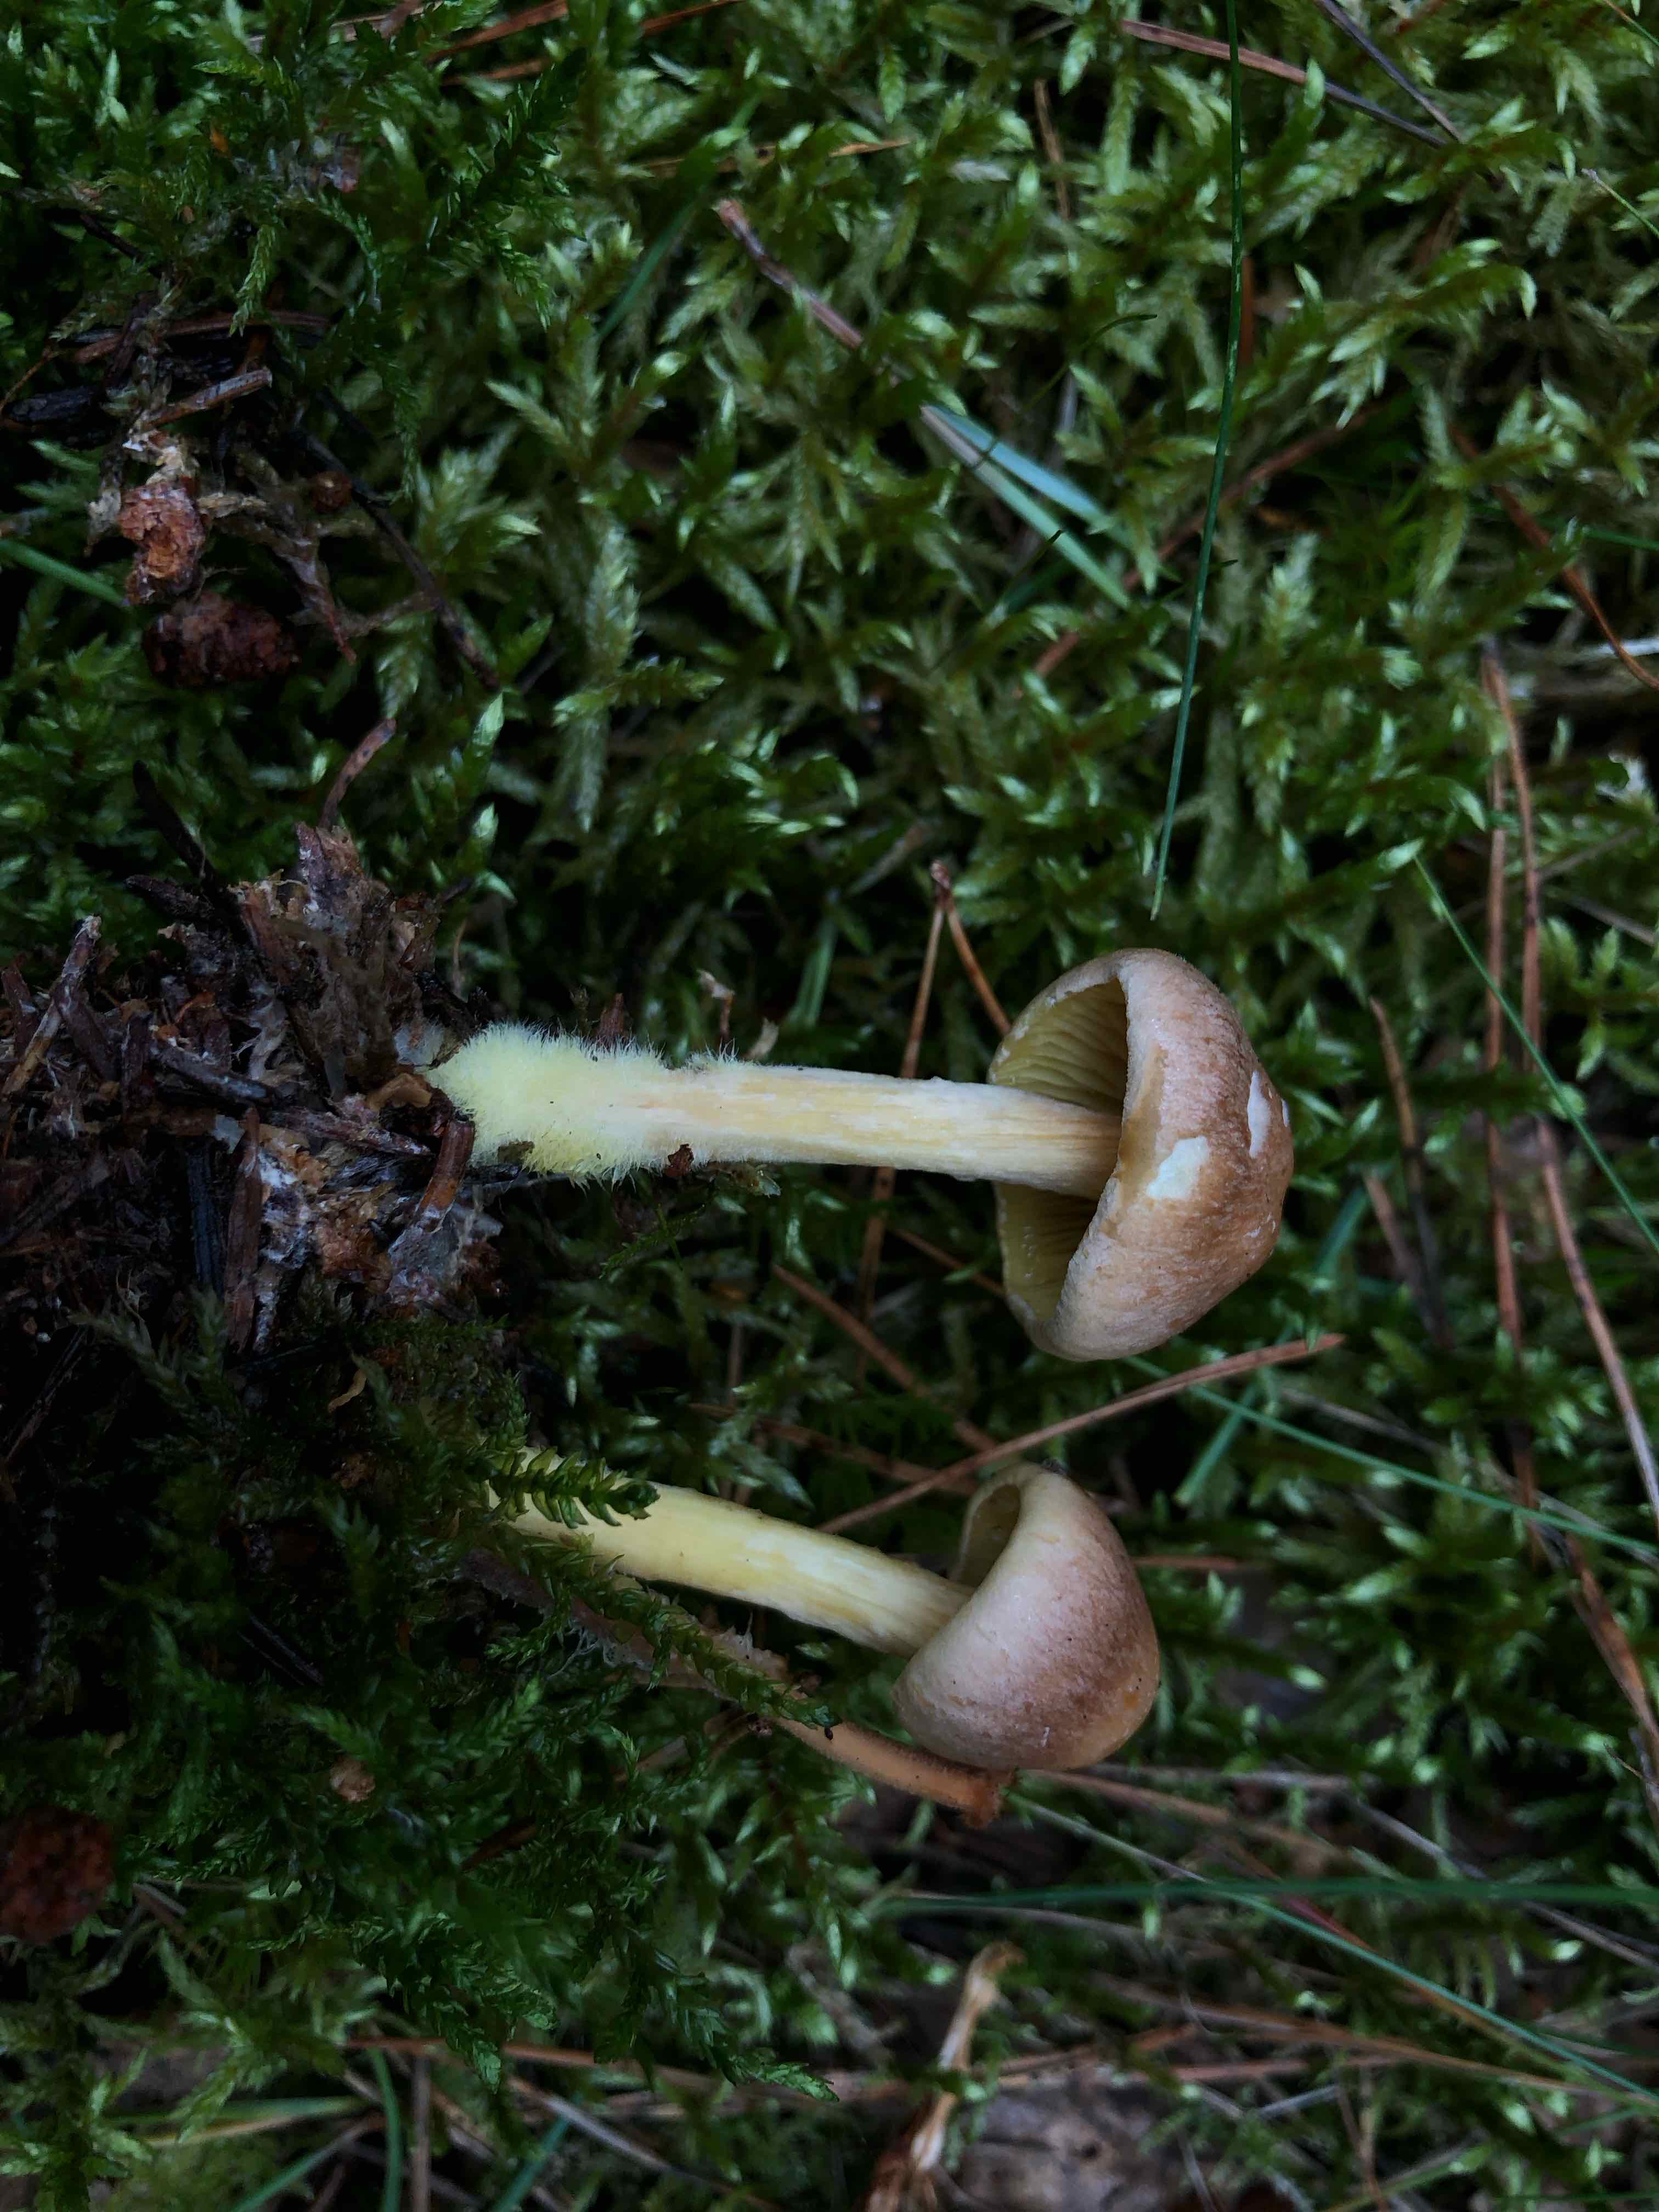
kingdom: Fungi
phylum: Basidiomycota
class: Agaricomycetes
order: Agaricales
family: Omphalotaceae
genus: Collybiopsis
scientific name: Collybiopsis peronata
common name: bestøvlet fladhat
